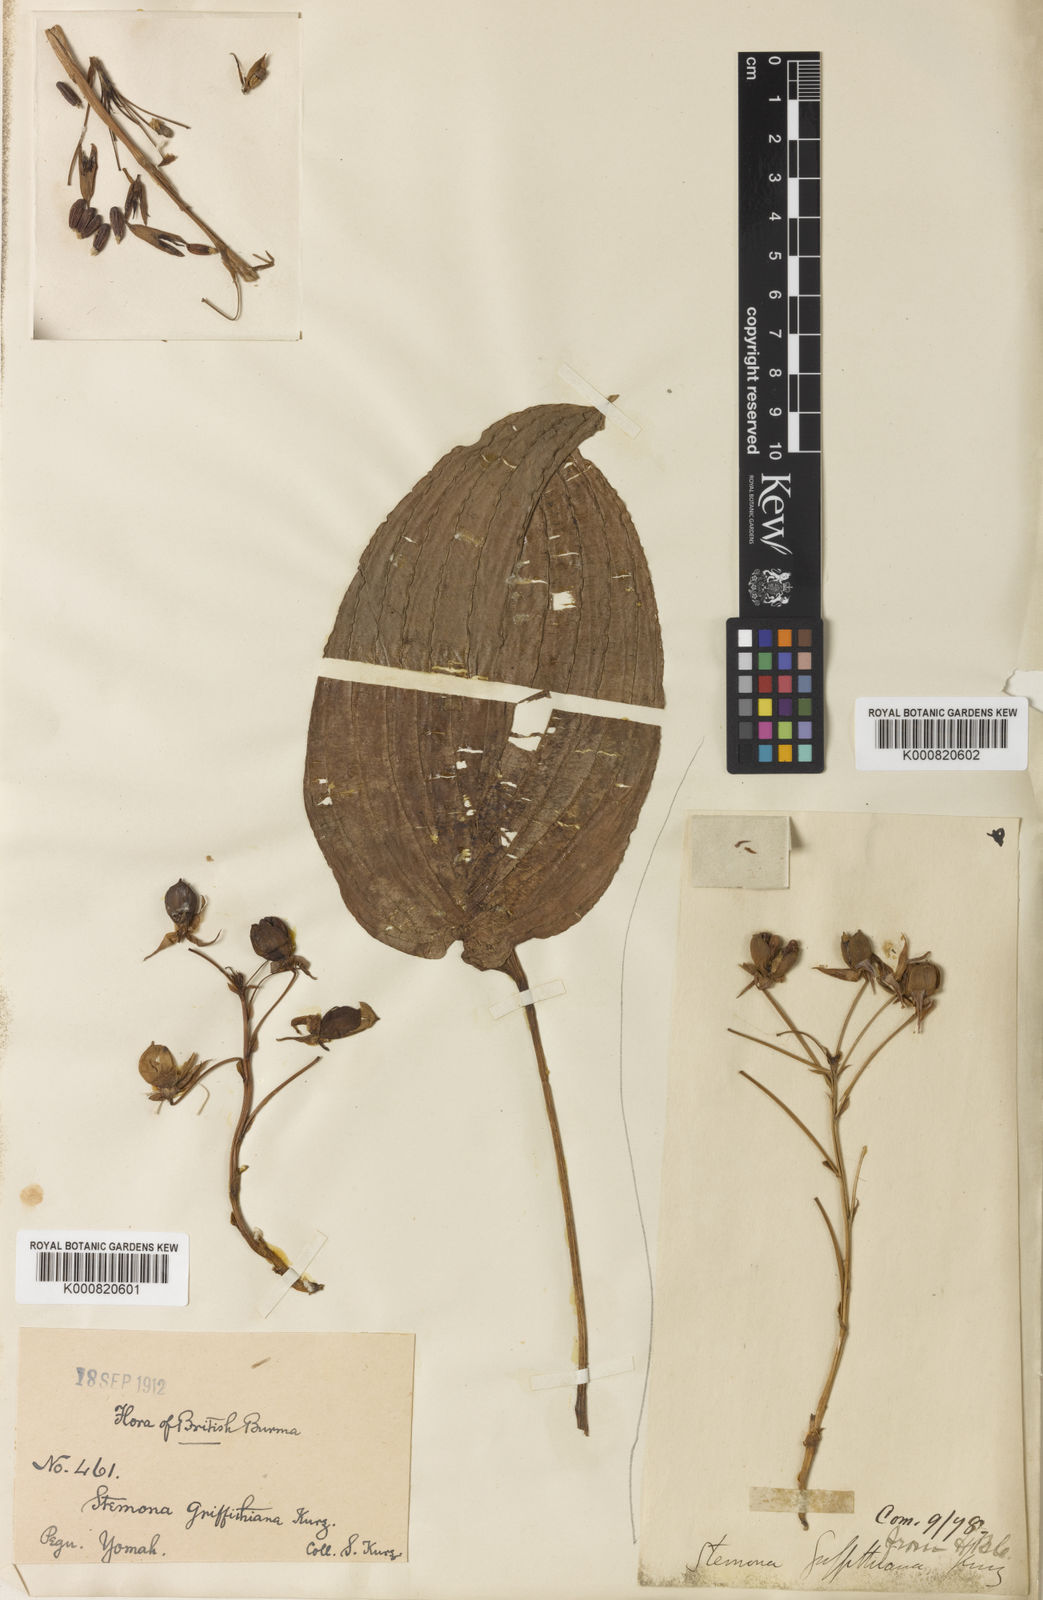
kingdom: Plantae
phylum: Tracheophyta
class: Liliopsida
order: Pandanales
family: Stemonaceae
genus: Stemona
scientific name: Stemona griffithiana
